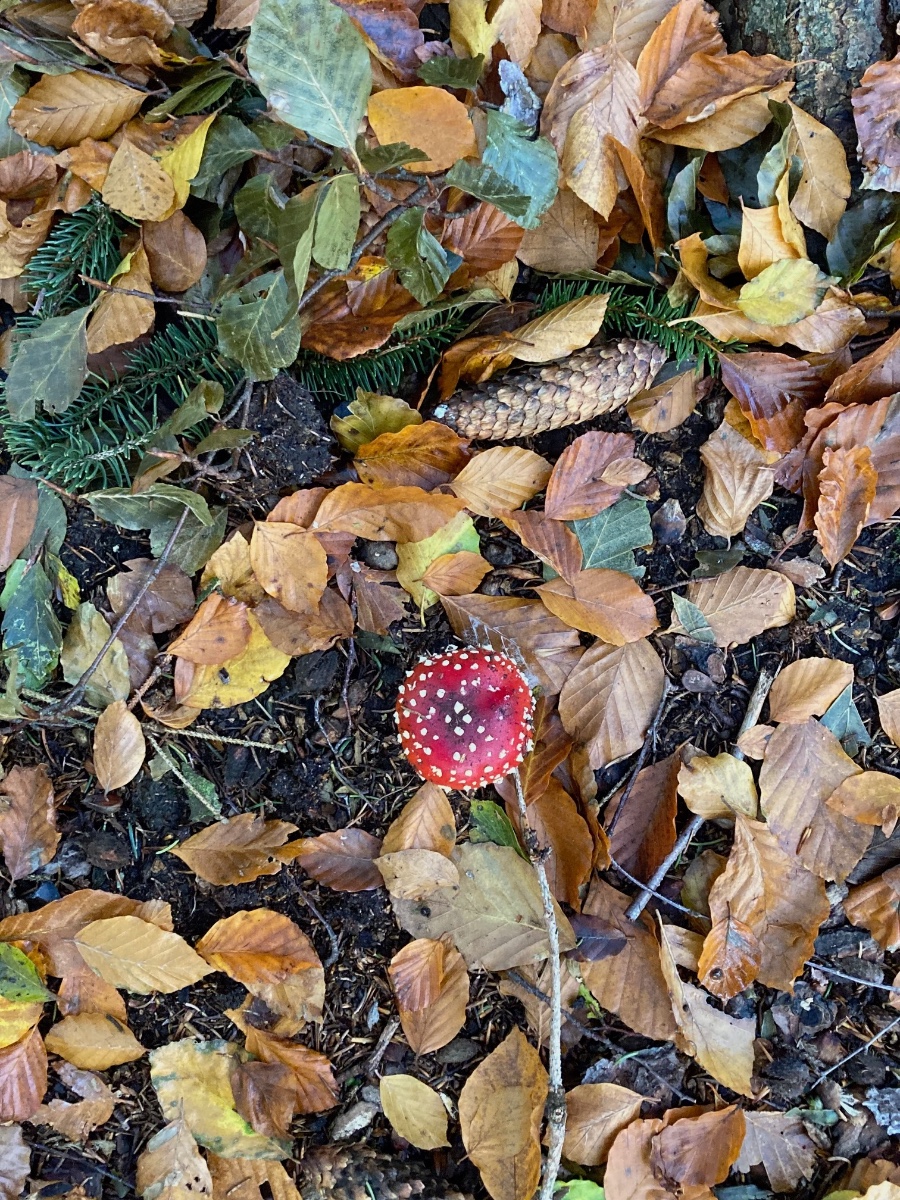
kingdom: Fungi
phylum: Basidiomycota
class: Agaricomycetes
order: Agaricales
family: Amanitaceae
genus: Amanita
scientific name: Amanita muscaria
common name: rød fluesvamp
